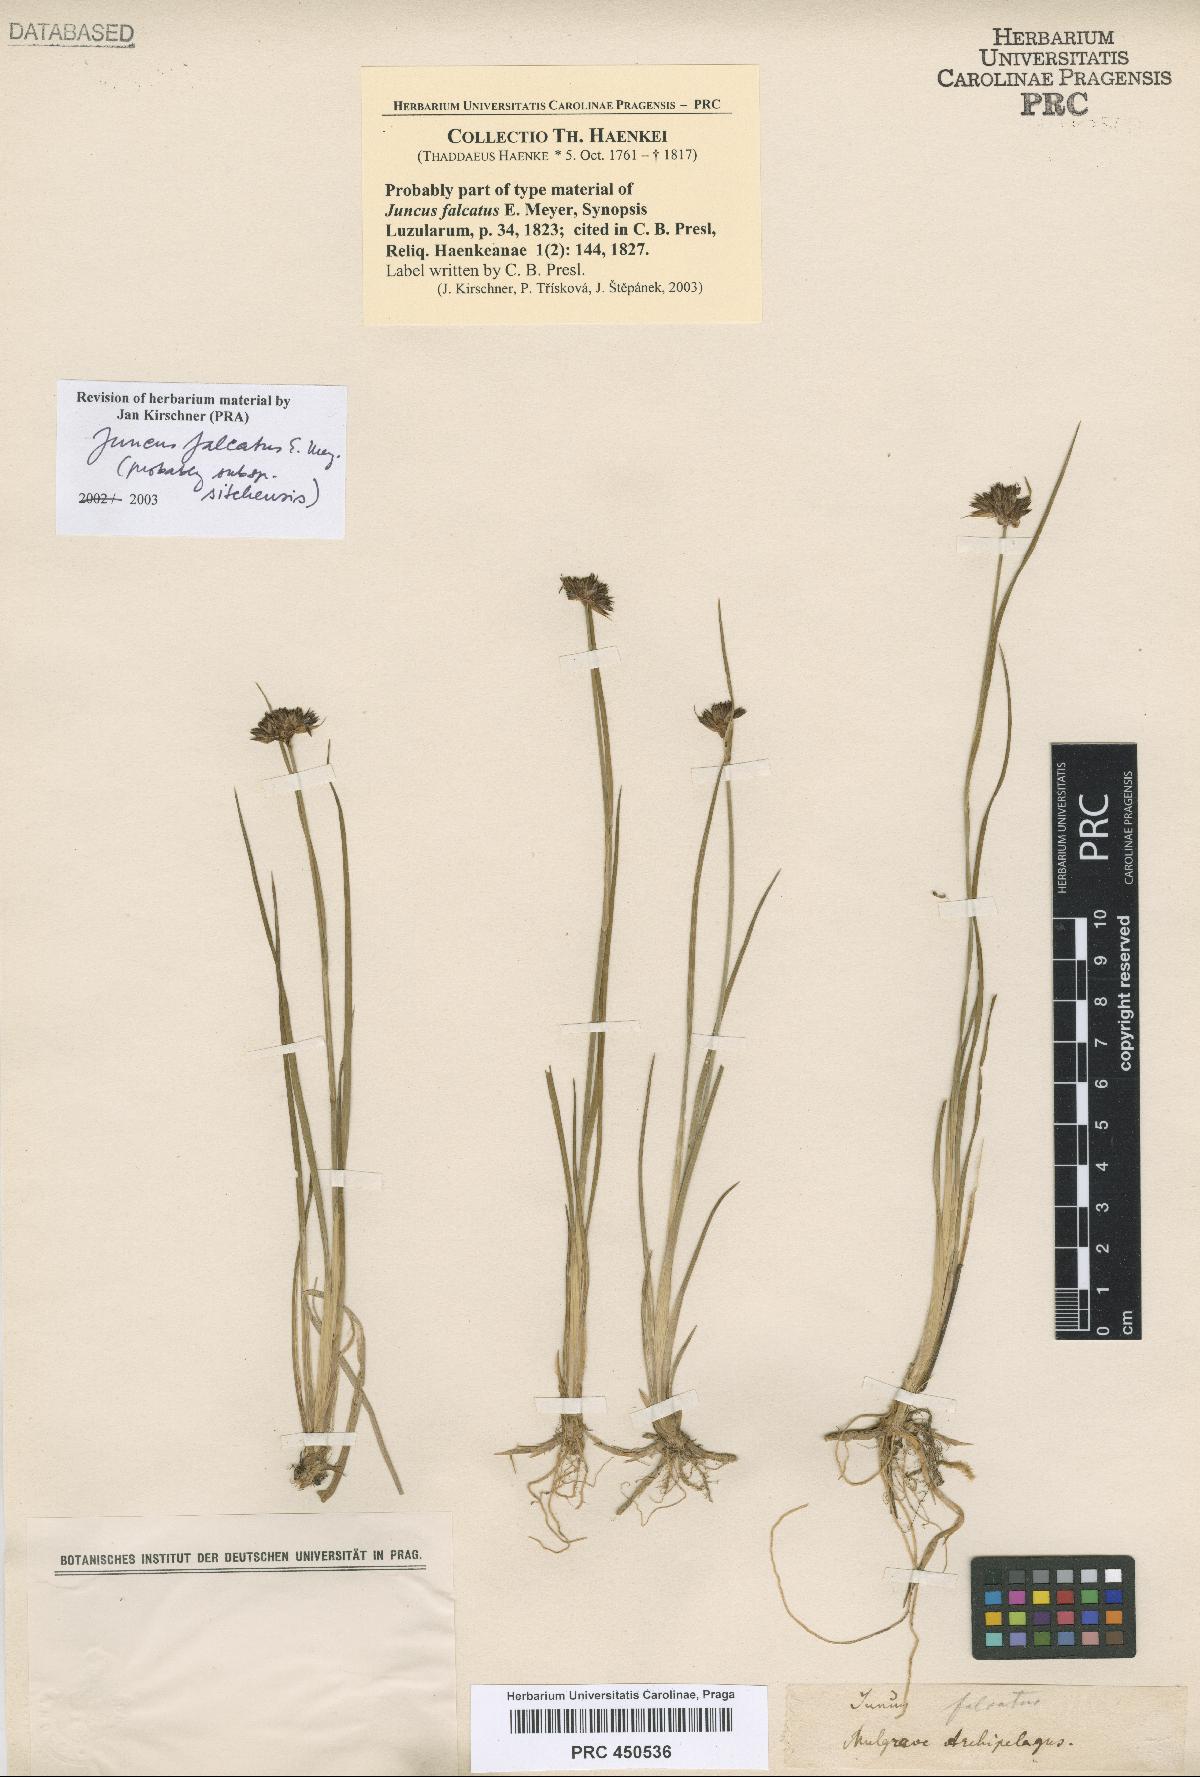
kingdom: Plantae
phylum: Tracheophyta
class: Liliopsida
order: Poales
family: Juncaceae
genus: Juncus
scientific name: Juncus falcatus
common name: Sickle-leaf rush
